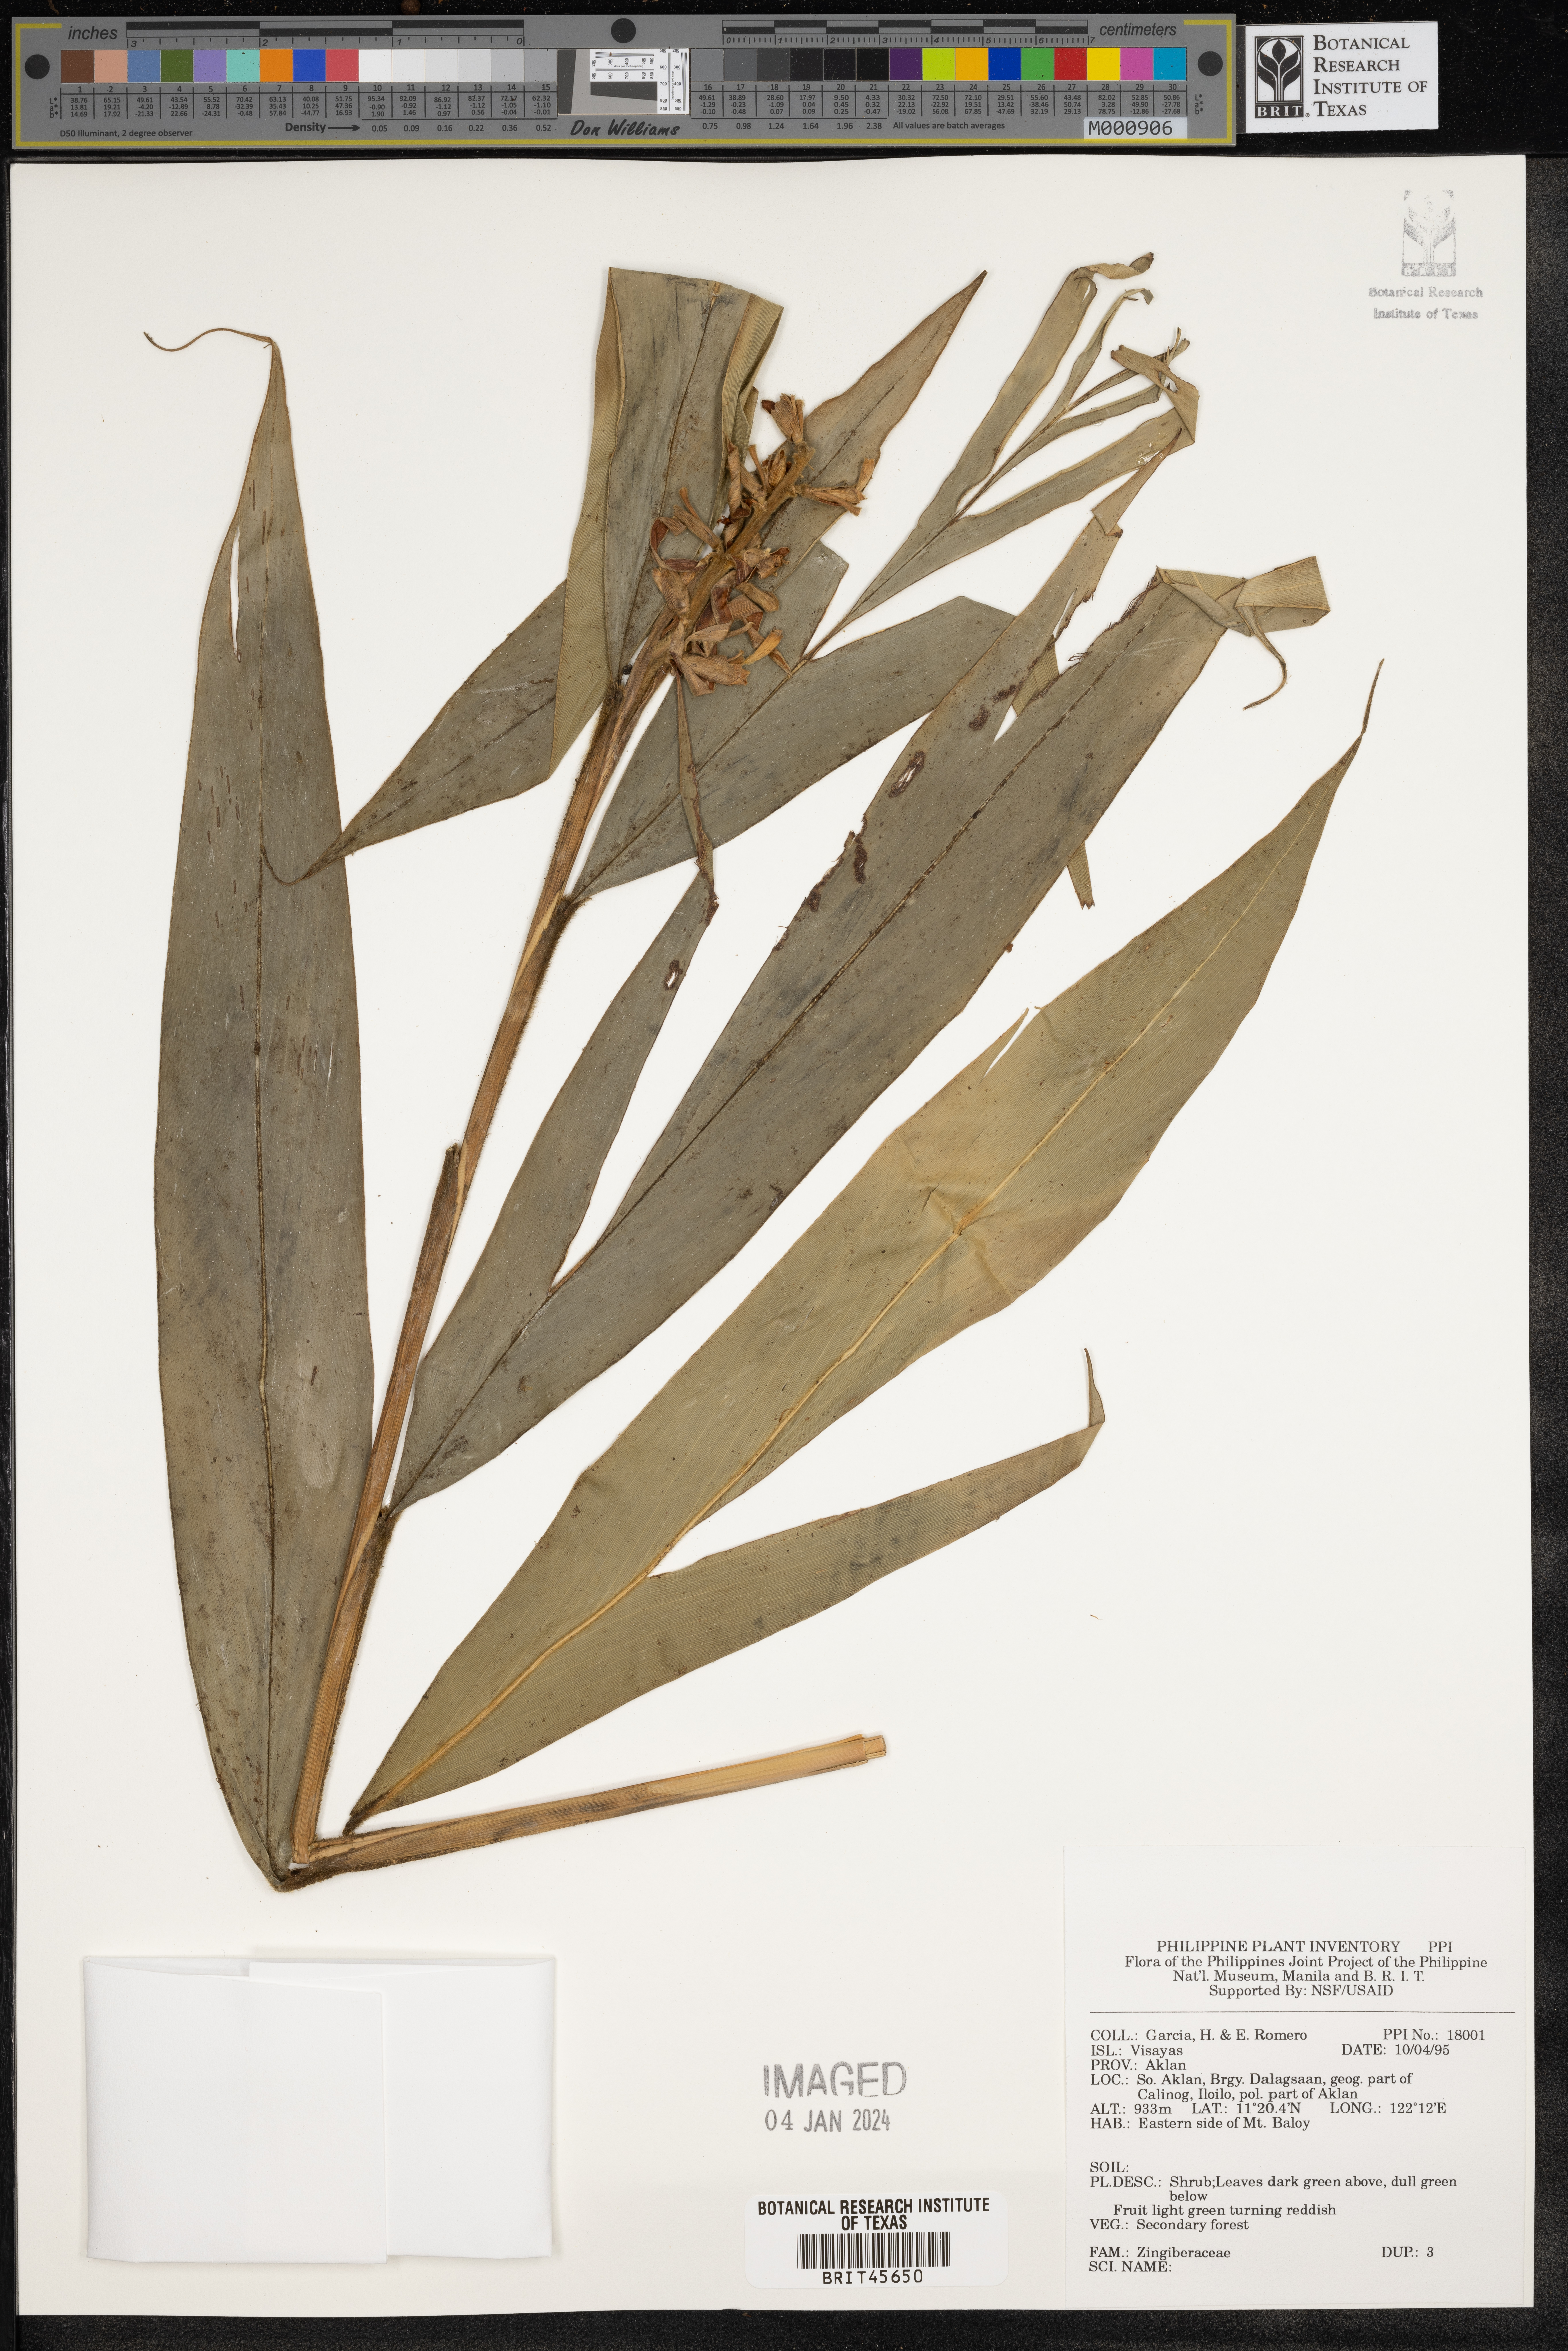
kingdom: Plantae
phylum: Tracheophyta
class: Liliopsida
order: Zingiberales
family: Zingiberaceae
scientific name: Zingiberaceae
